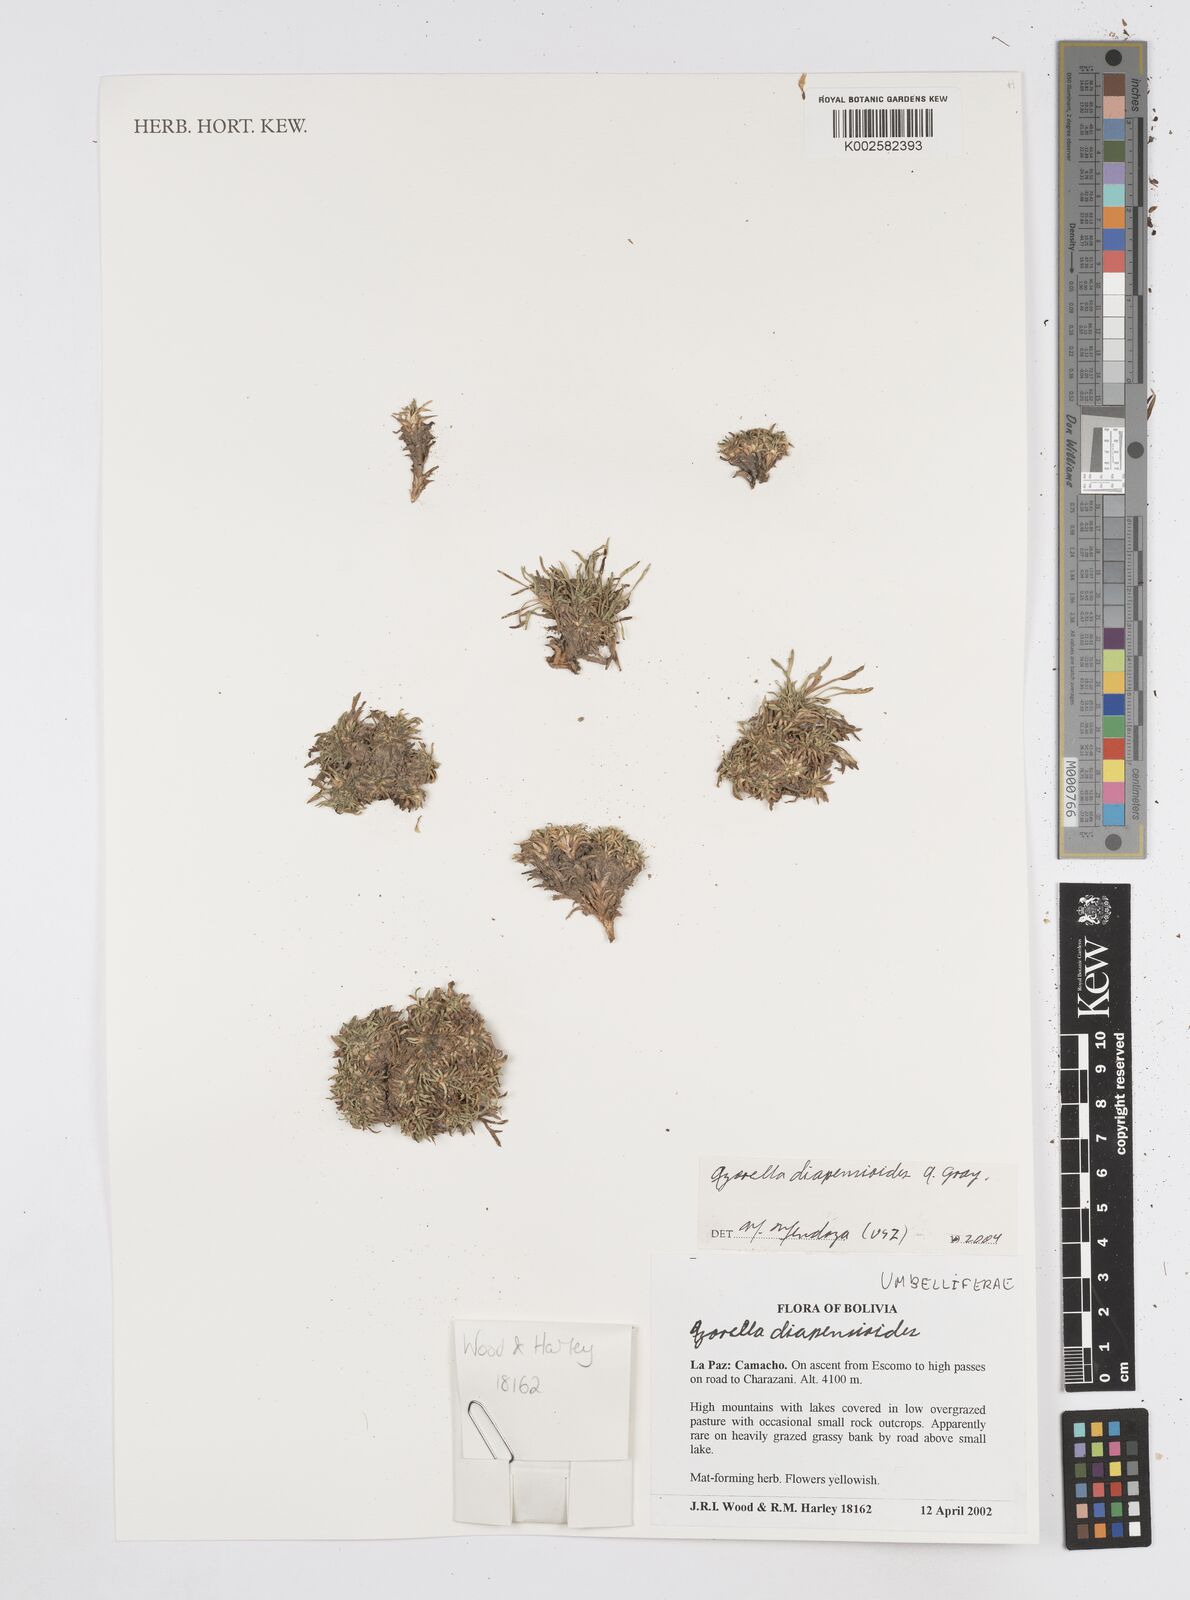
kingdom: Plantae
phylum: Tracheophyta
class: Magnoliopsida
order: Apiales
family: Apiaceae
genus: Azorella
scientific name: Azorella diapensioides
